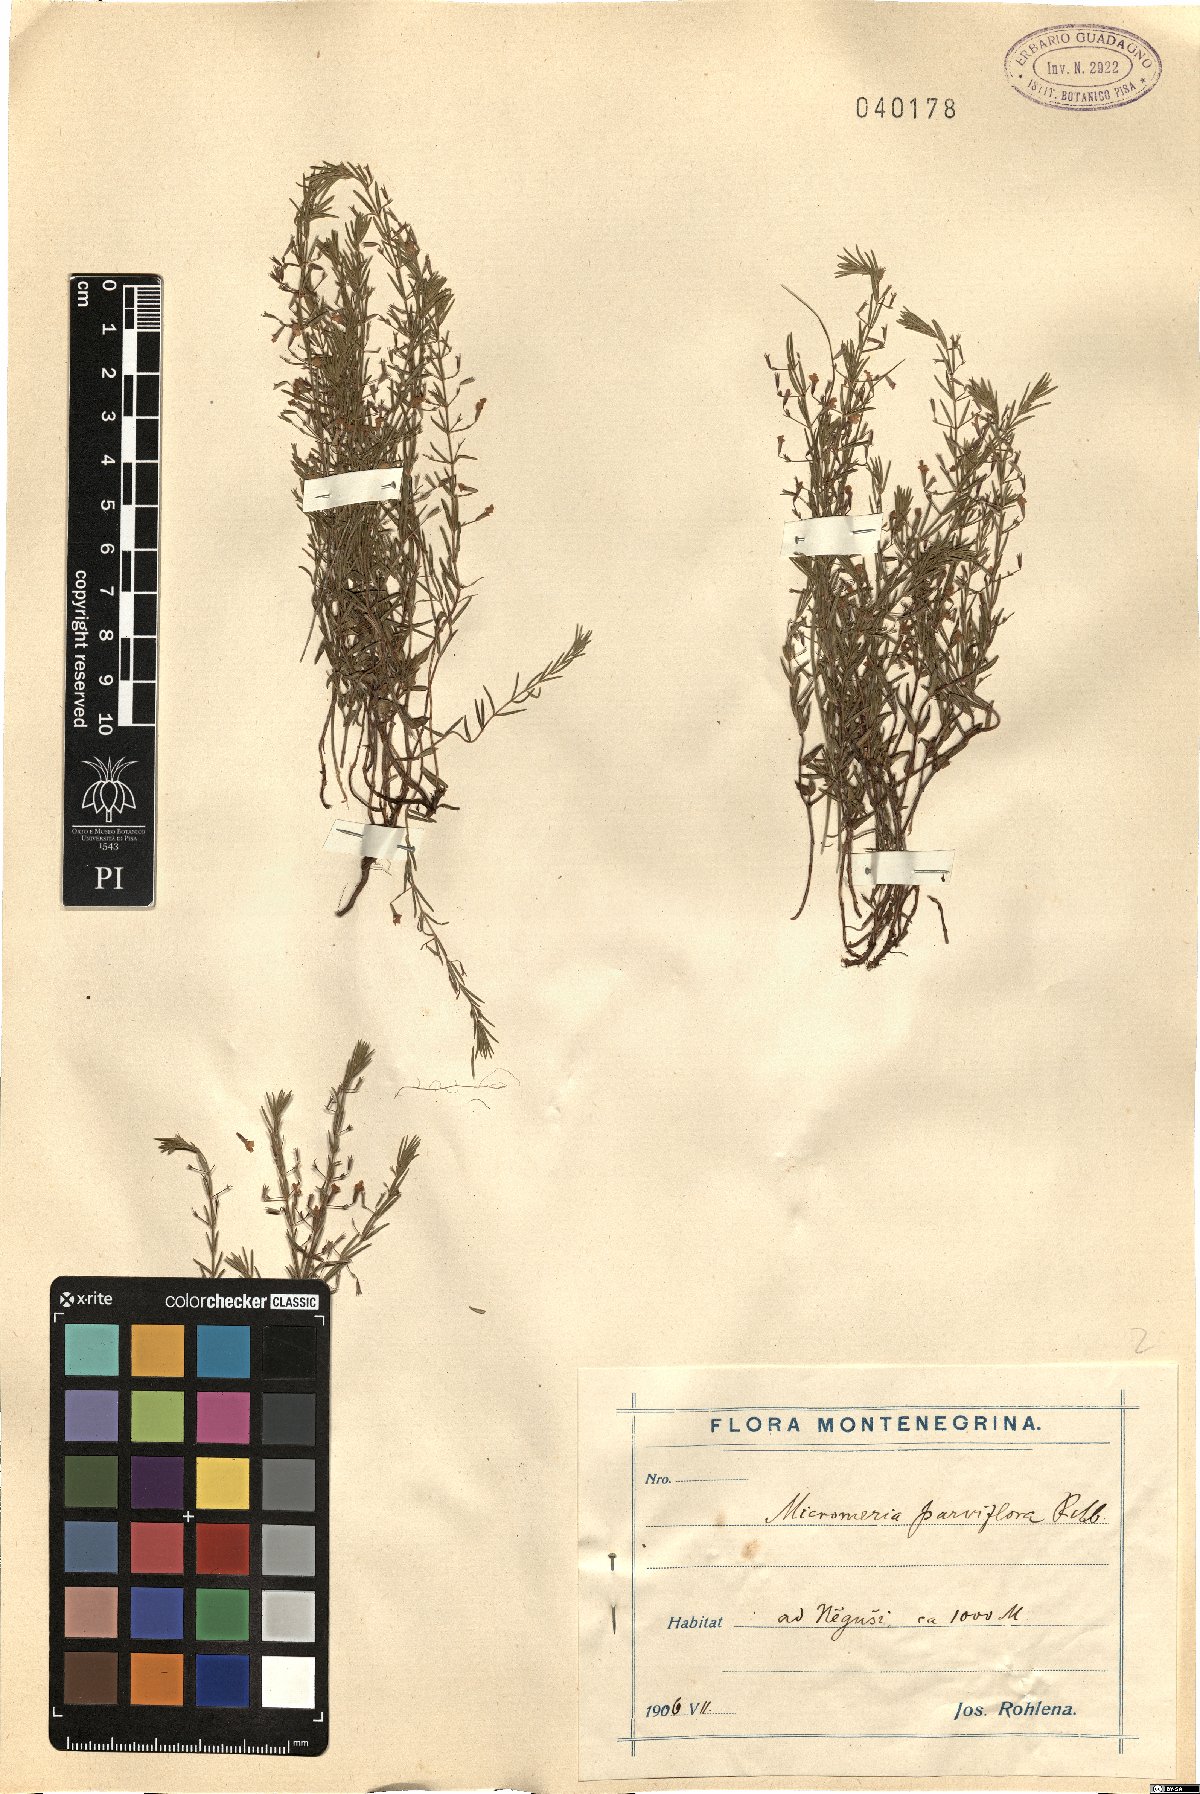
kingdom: Plantae
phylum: Tracheophyta
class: Magnoliopsida
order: Lamiales
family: Lamiaceae
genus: Micromeria
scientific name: Micromeria longipedunculata
